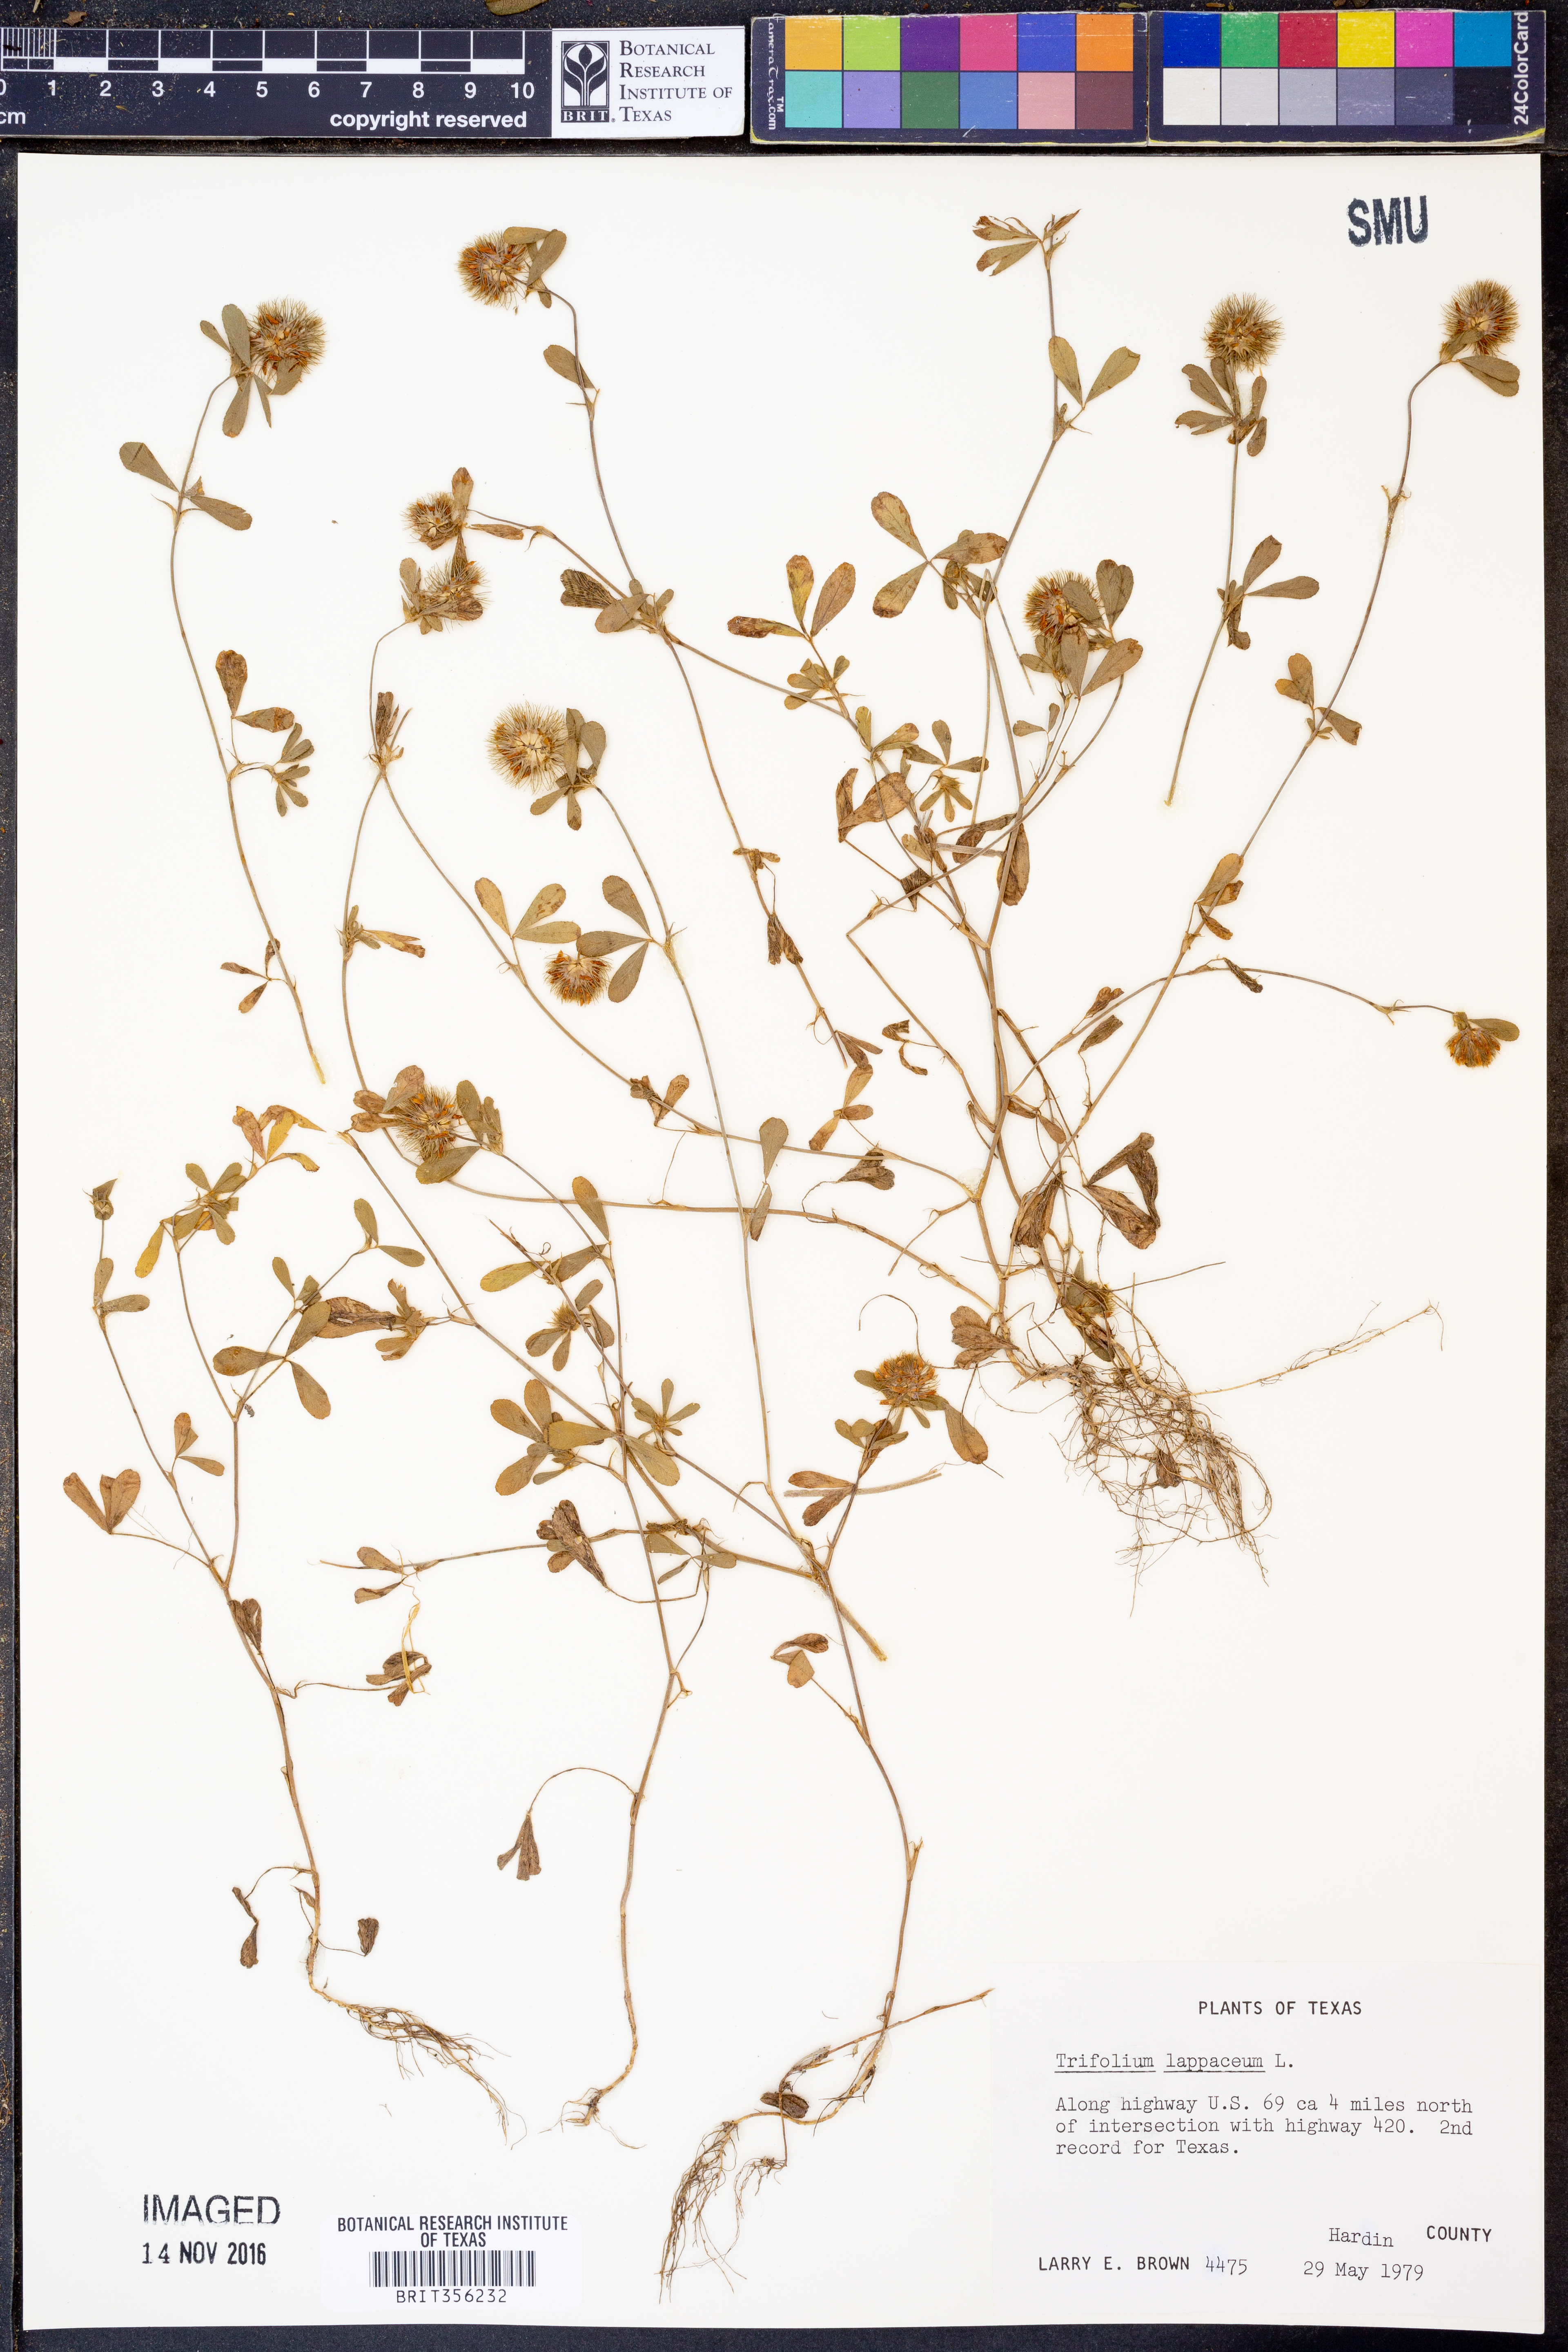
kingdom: Plantae
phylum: Tracheophyta
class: Magnoliopsida
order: Fabales
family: Fabaceae
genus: Trifolium
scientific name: Trifolium lappaceum
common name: Bur clover
